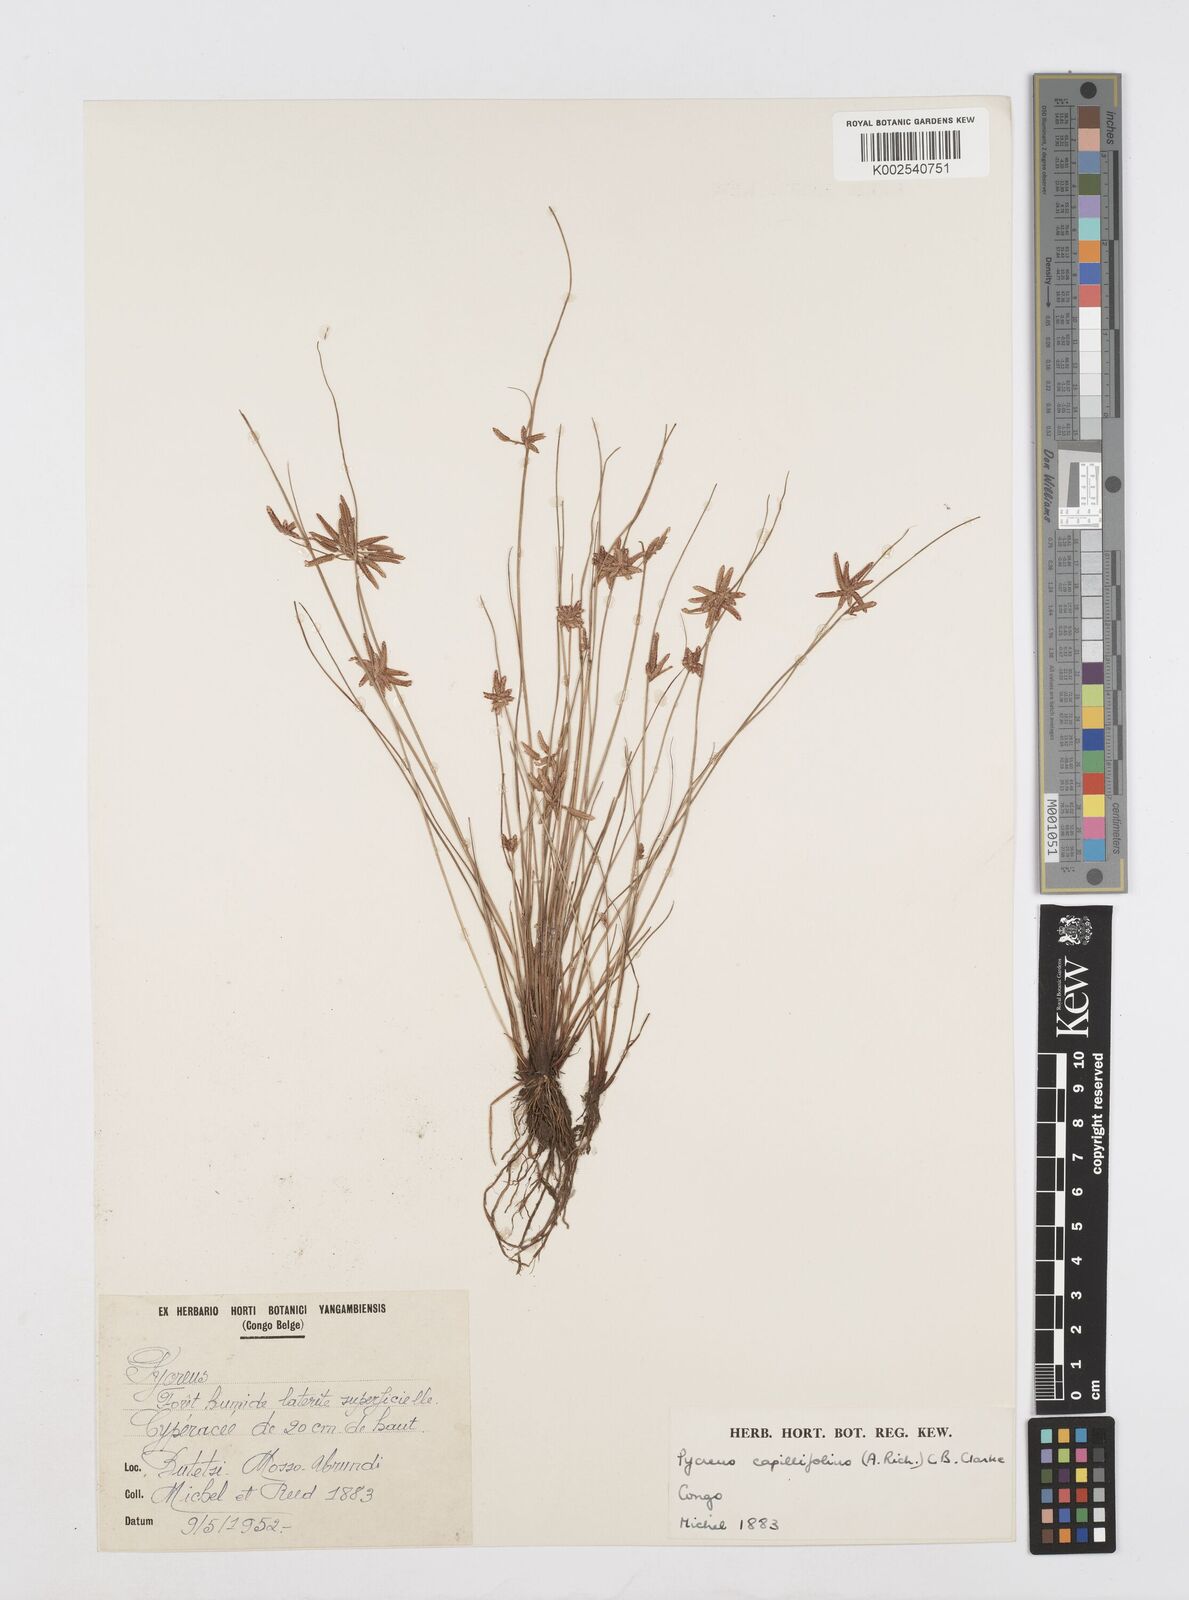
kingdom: Plantae
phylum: Tracheophyta
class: Liliopsida
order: Poales
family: Cyperaceae
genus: Cyperus
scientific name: Cyperus capillifolius
